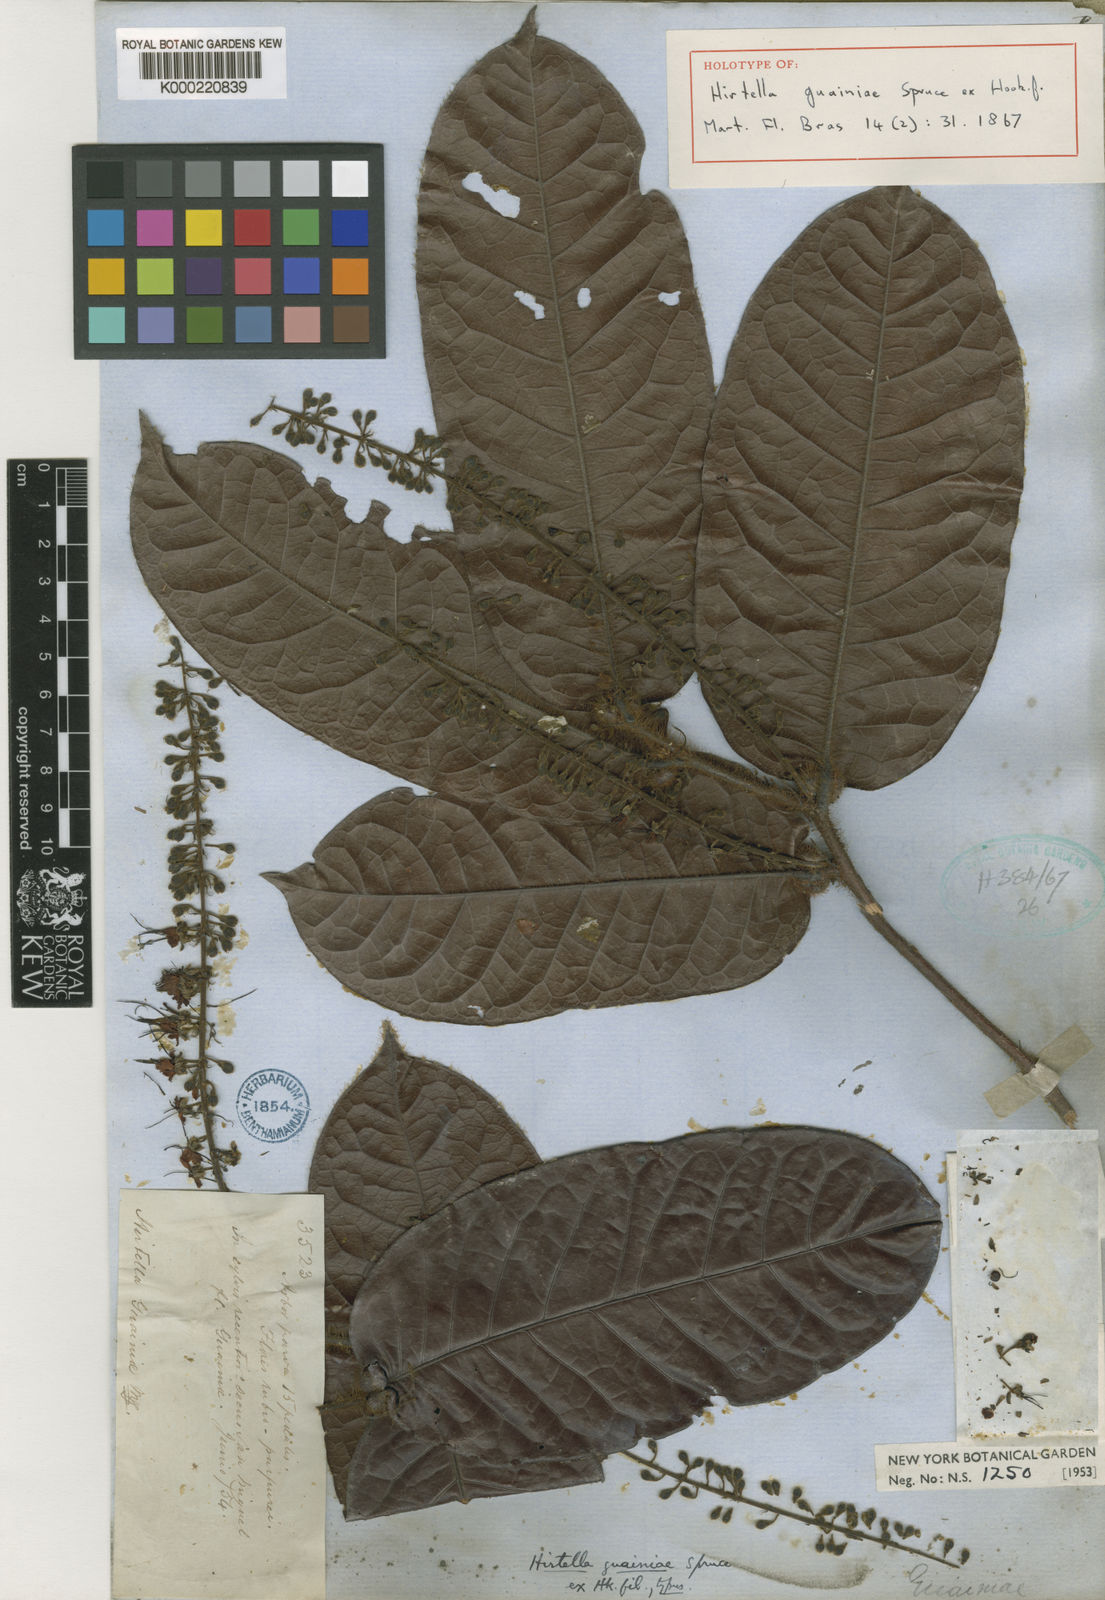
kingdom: Plantae
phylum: Tracheophyta
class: Magnoliopsida
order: Malpighiales
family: Chrysobalanaceae
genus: Hirtella
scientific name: Hirtella guainiae
